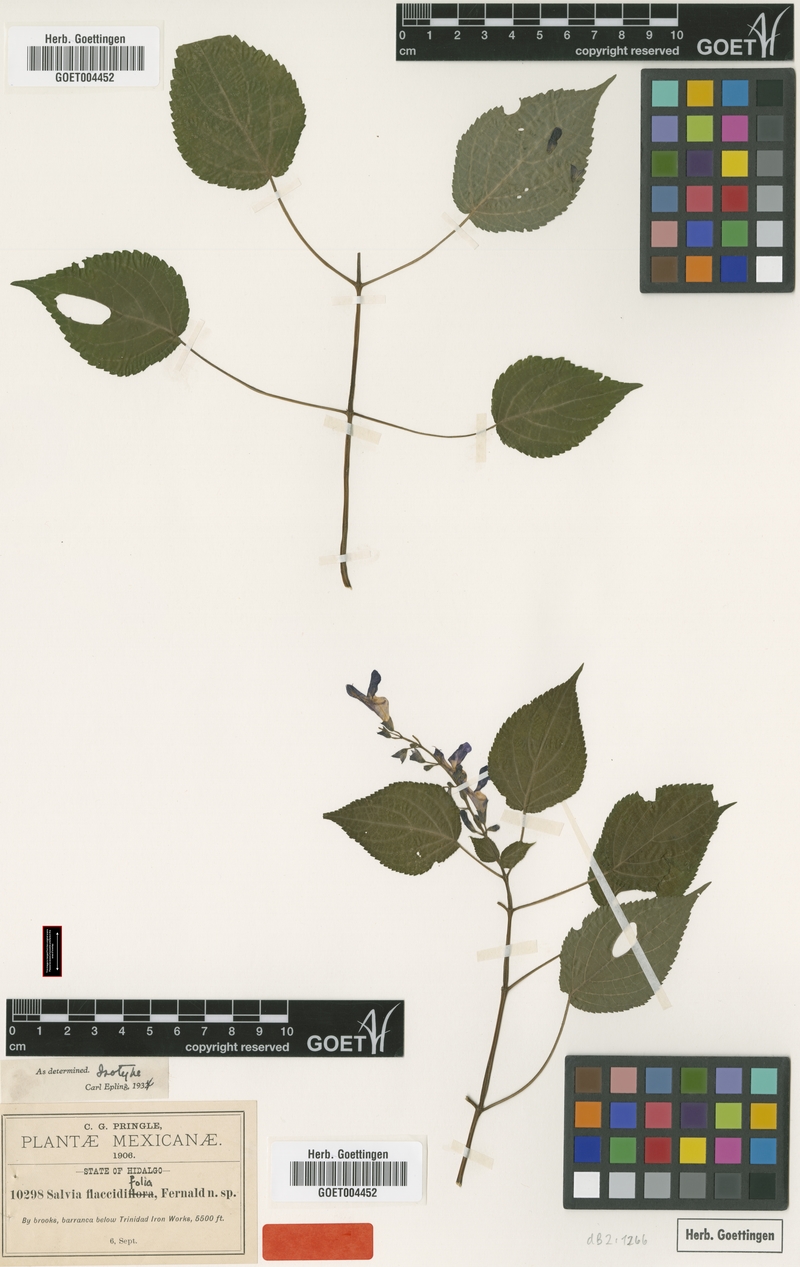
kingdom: Plantae
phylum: Tracheophyta
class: Magnoliopsida
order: Lamiales
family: Lamiaceae
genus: Salvia
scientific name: Salvia flaccidifolia
